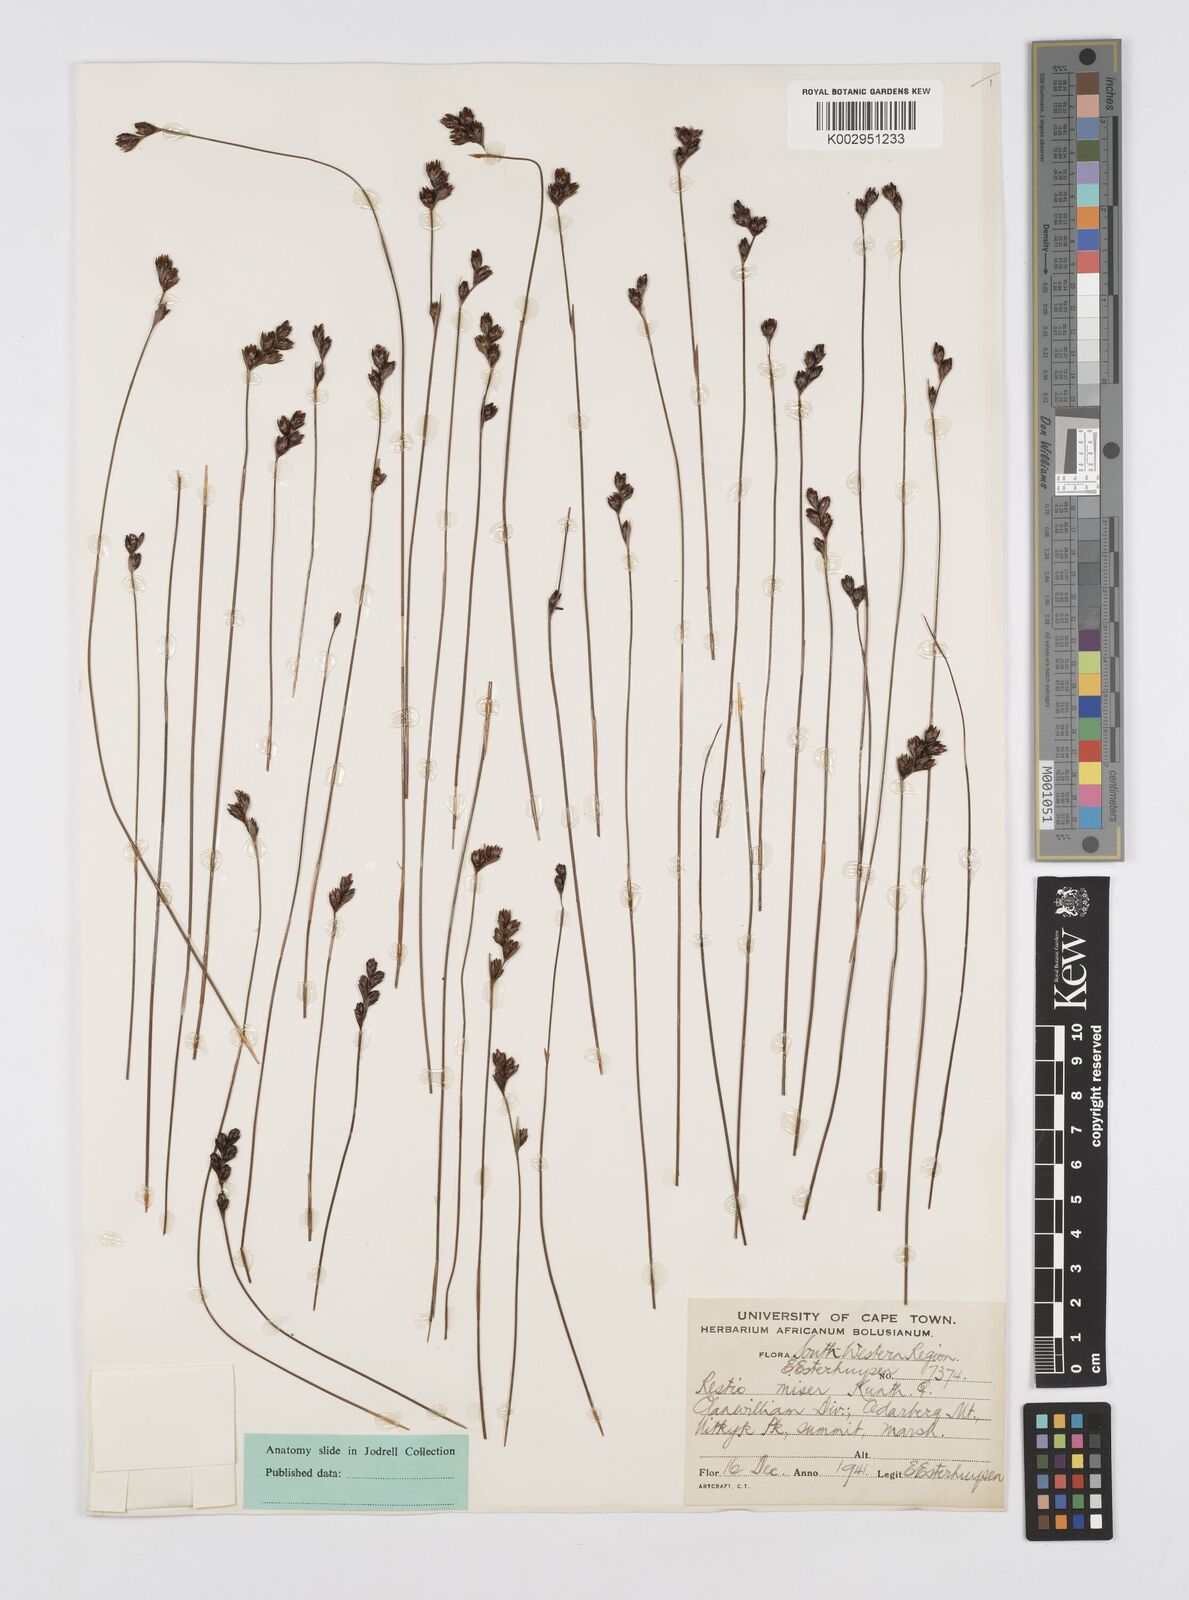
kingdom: Plantae
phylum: Tracheophyta
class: Liliopsida
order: Poales
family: Restionaceae
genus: Restio
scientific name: Restio miser
